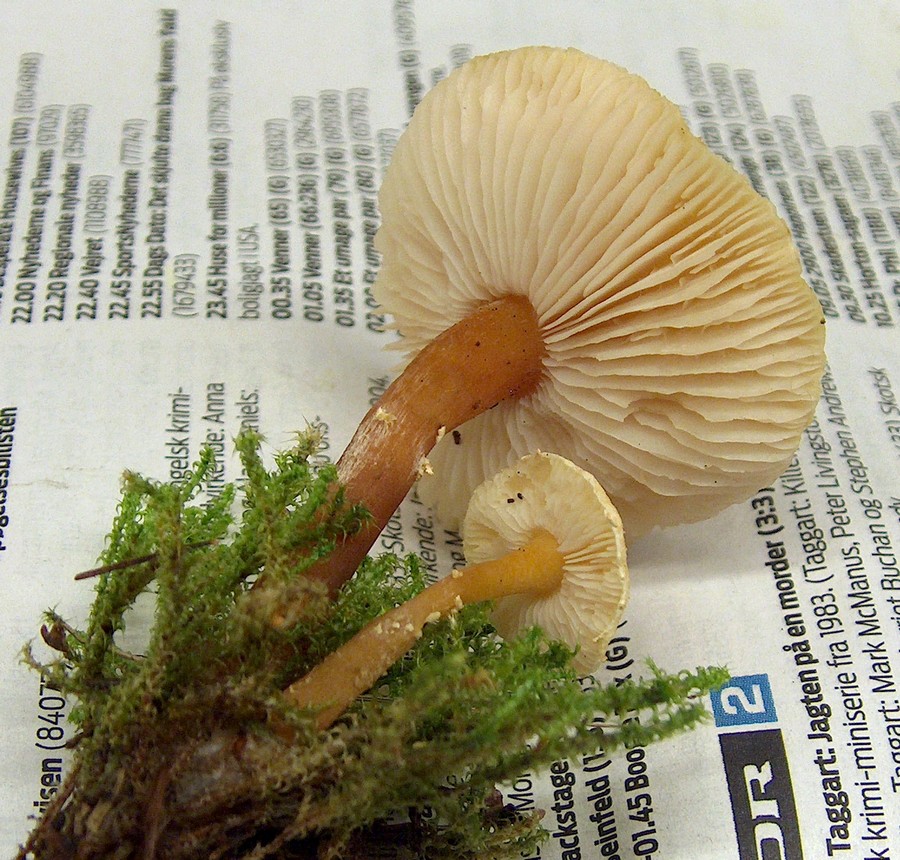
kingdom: Fungi
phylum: Basidiomycota
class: Agaricomycetes
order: Agaricales
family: Tricholomataceae
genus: Cystoderma
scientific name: Cystoderma amianthinum
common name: okkergul grynhat
